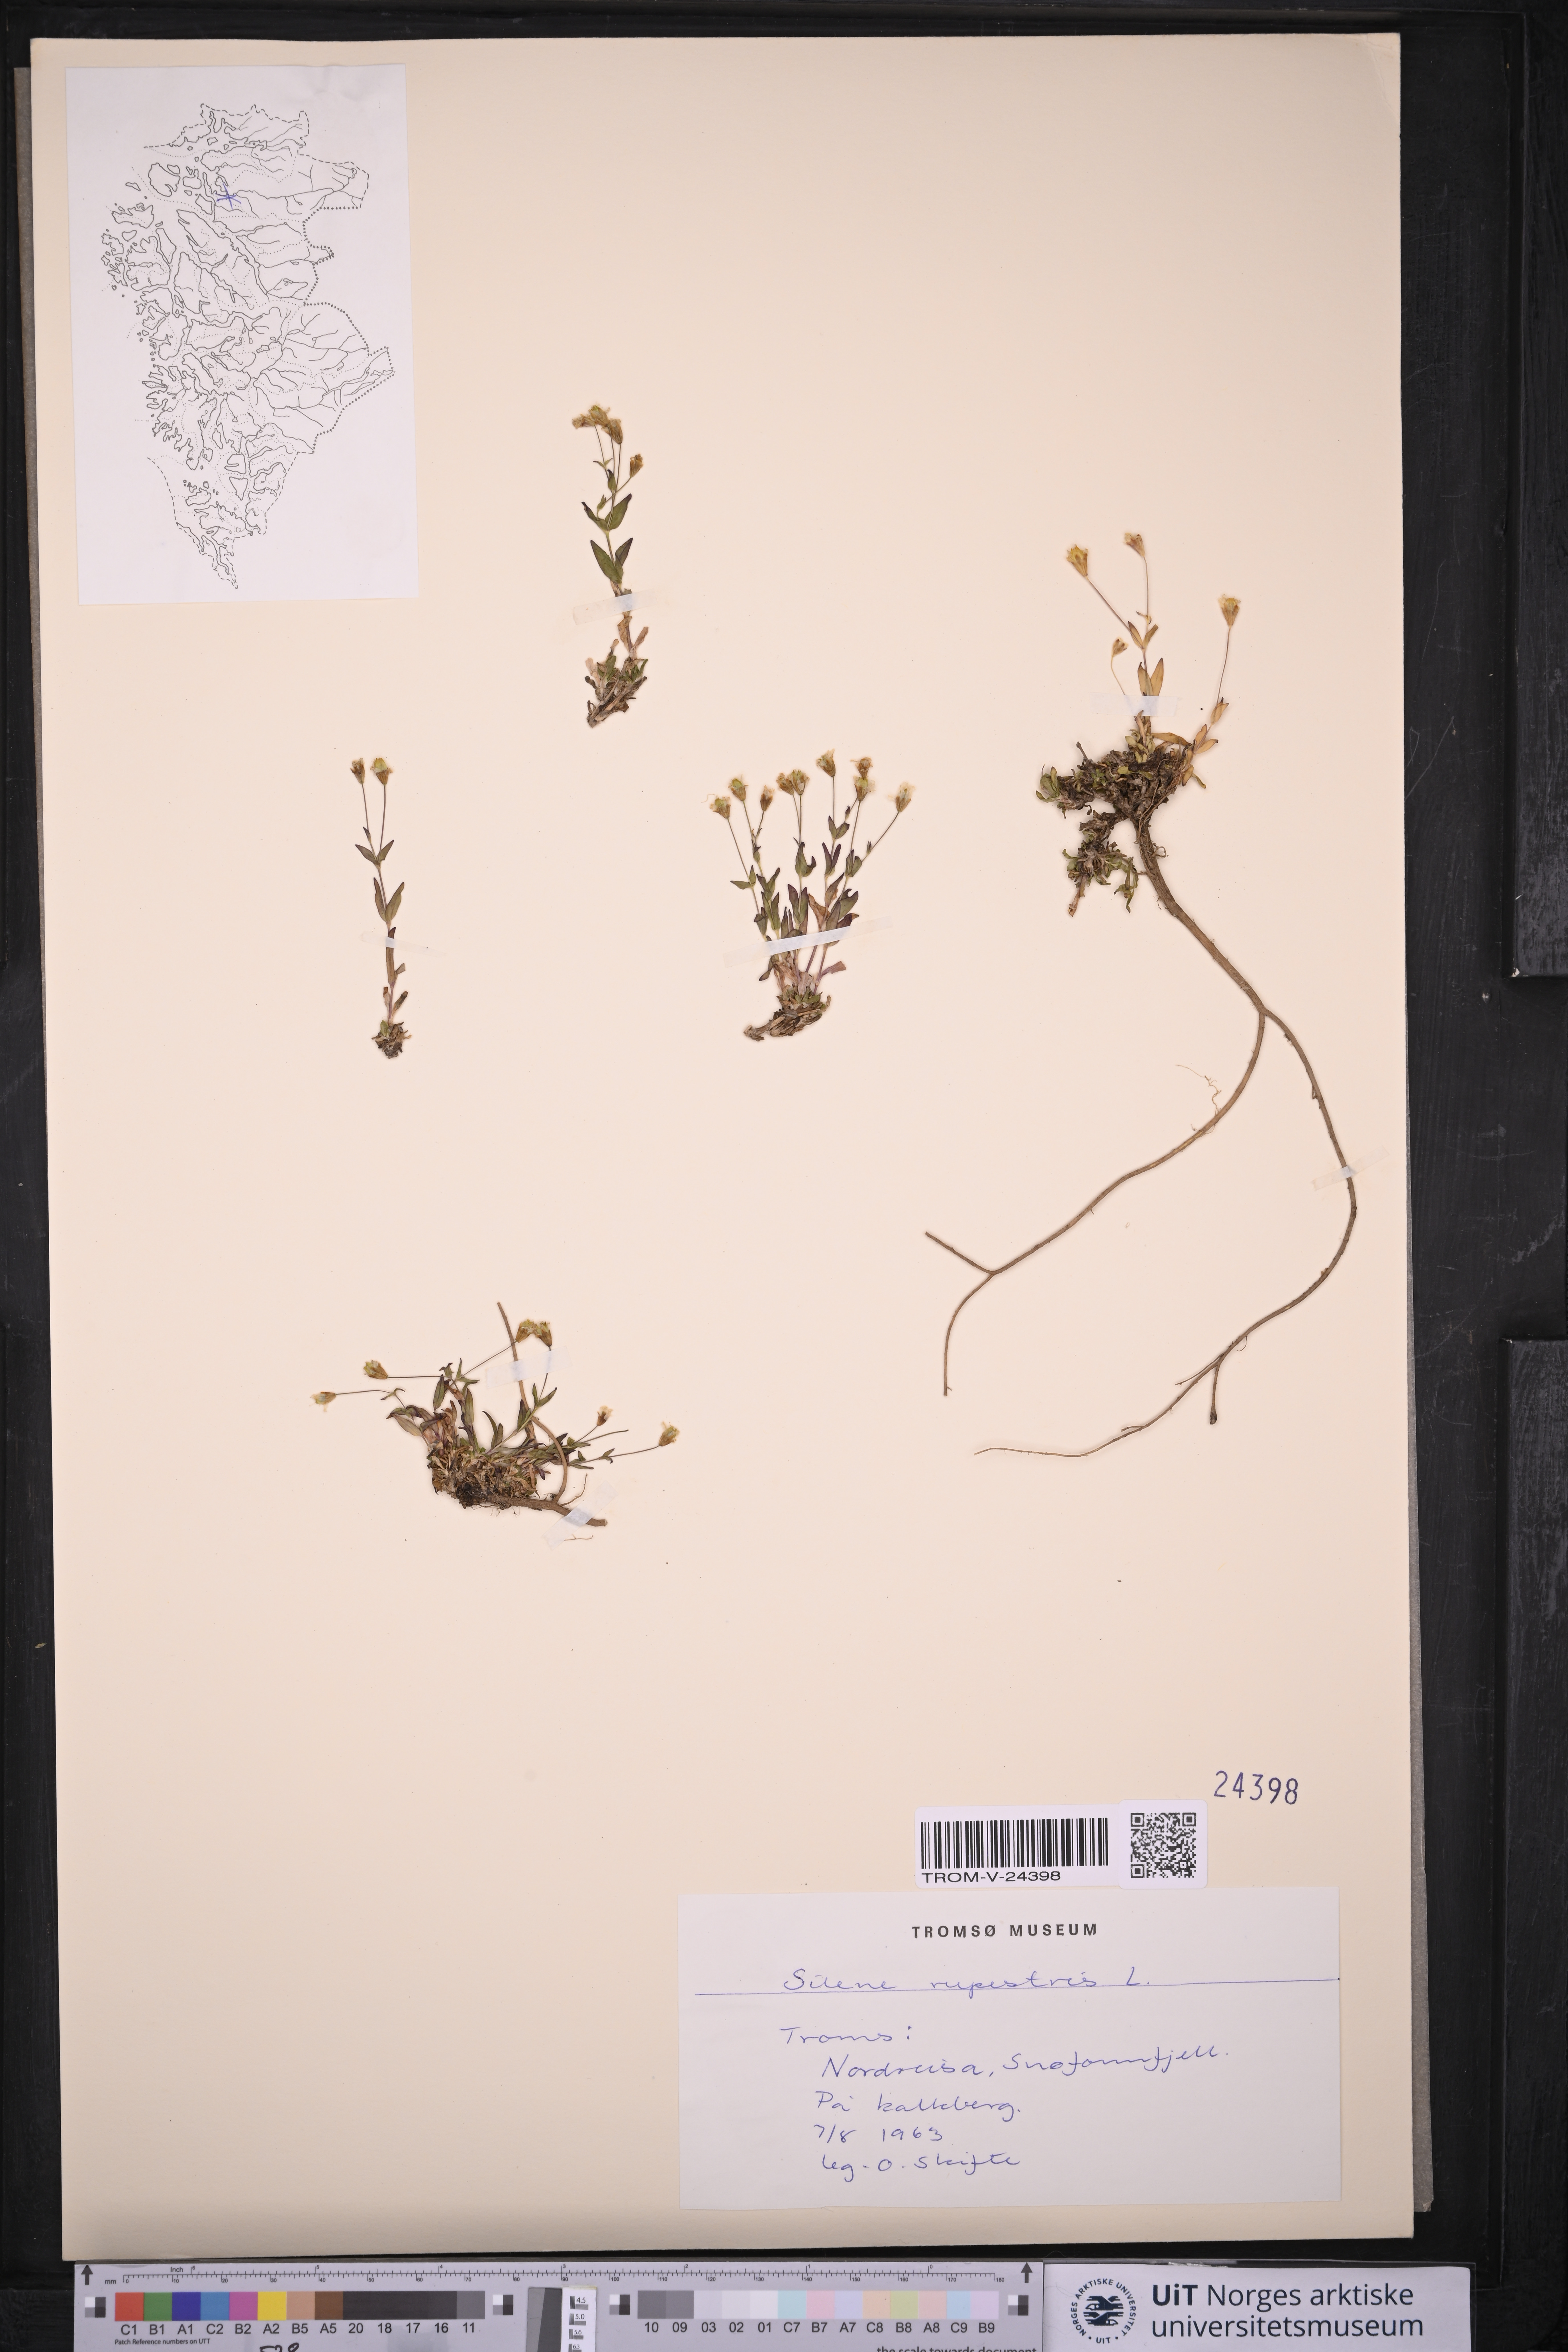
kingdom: Plantae
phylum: Tracheophyta
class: Magnoliopsida
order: Caryophyllales
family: Caryophyllaceae
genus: Atocion
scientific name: Atocion rupestre
